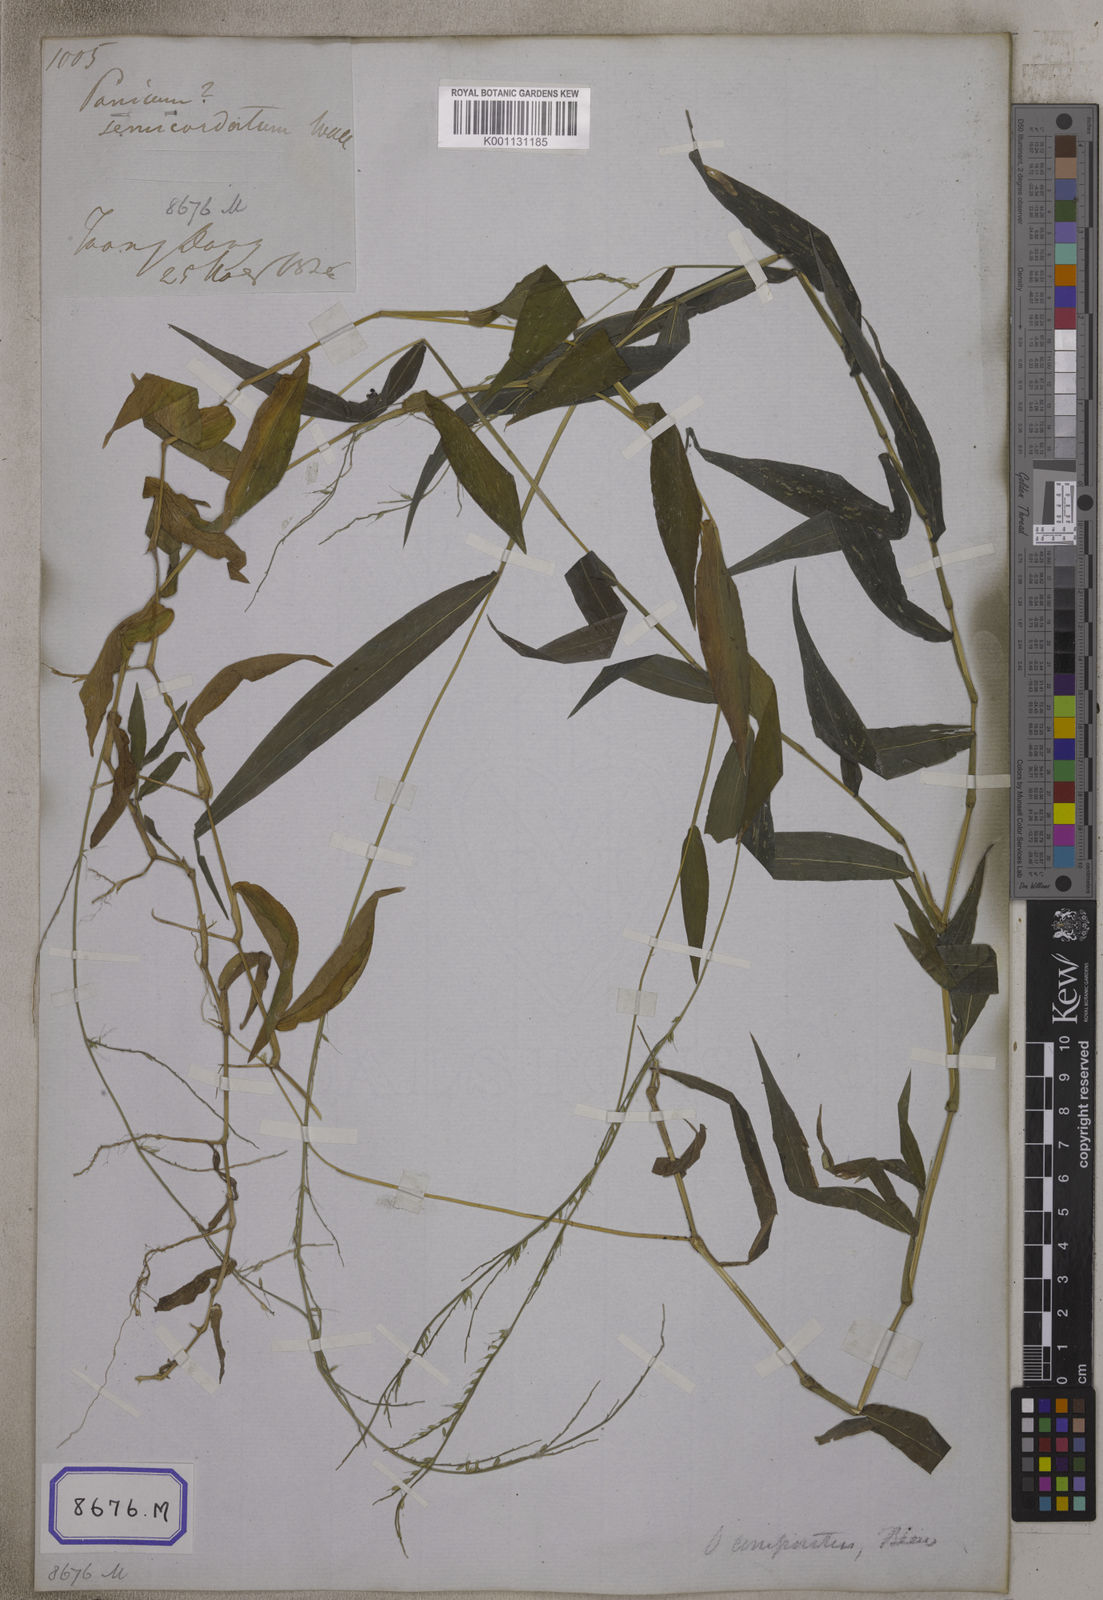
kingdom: Plantae
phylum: Tracheophyta
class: Liliopsida
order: Poales
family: Poaceae
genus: Oplismenus
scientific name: Oplismenus compositus
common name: Running mountain grass
